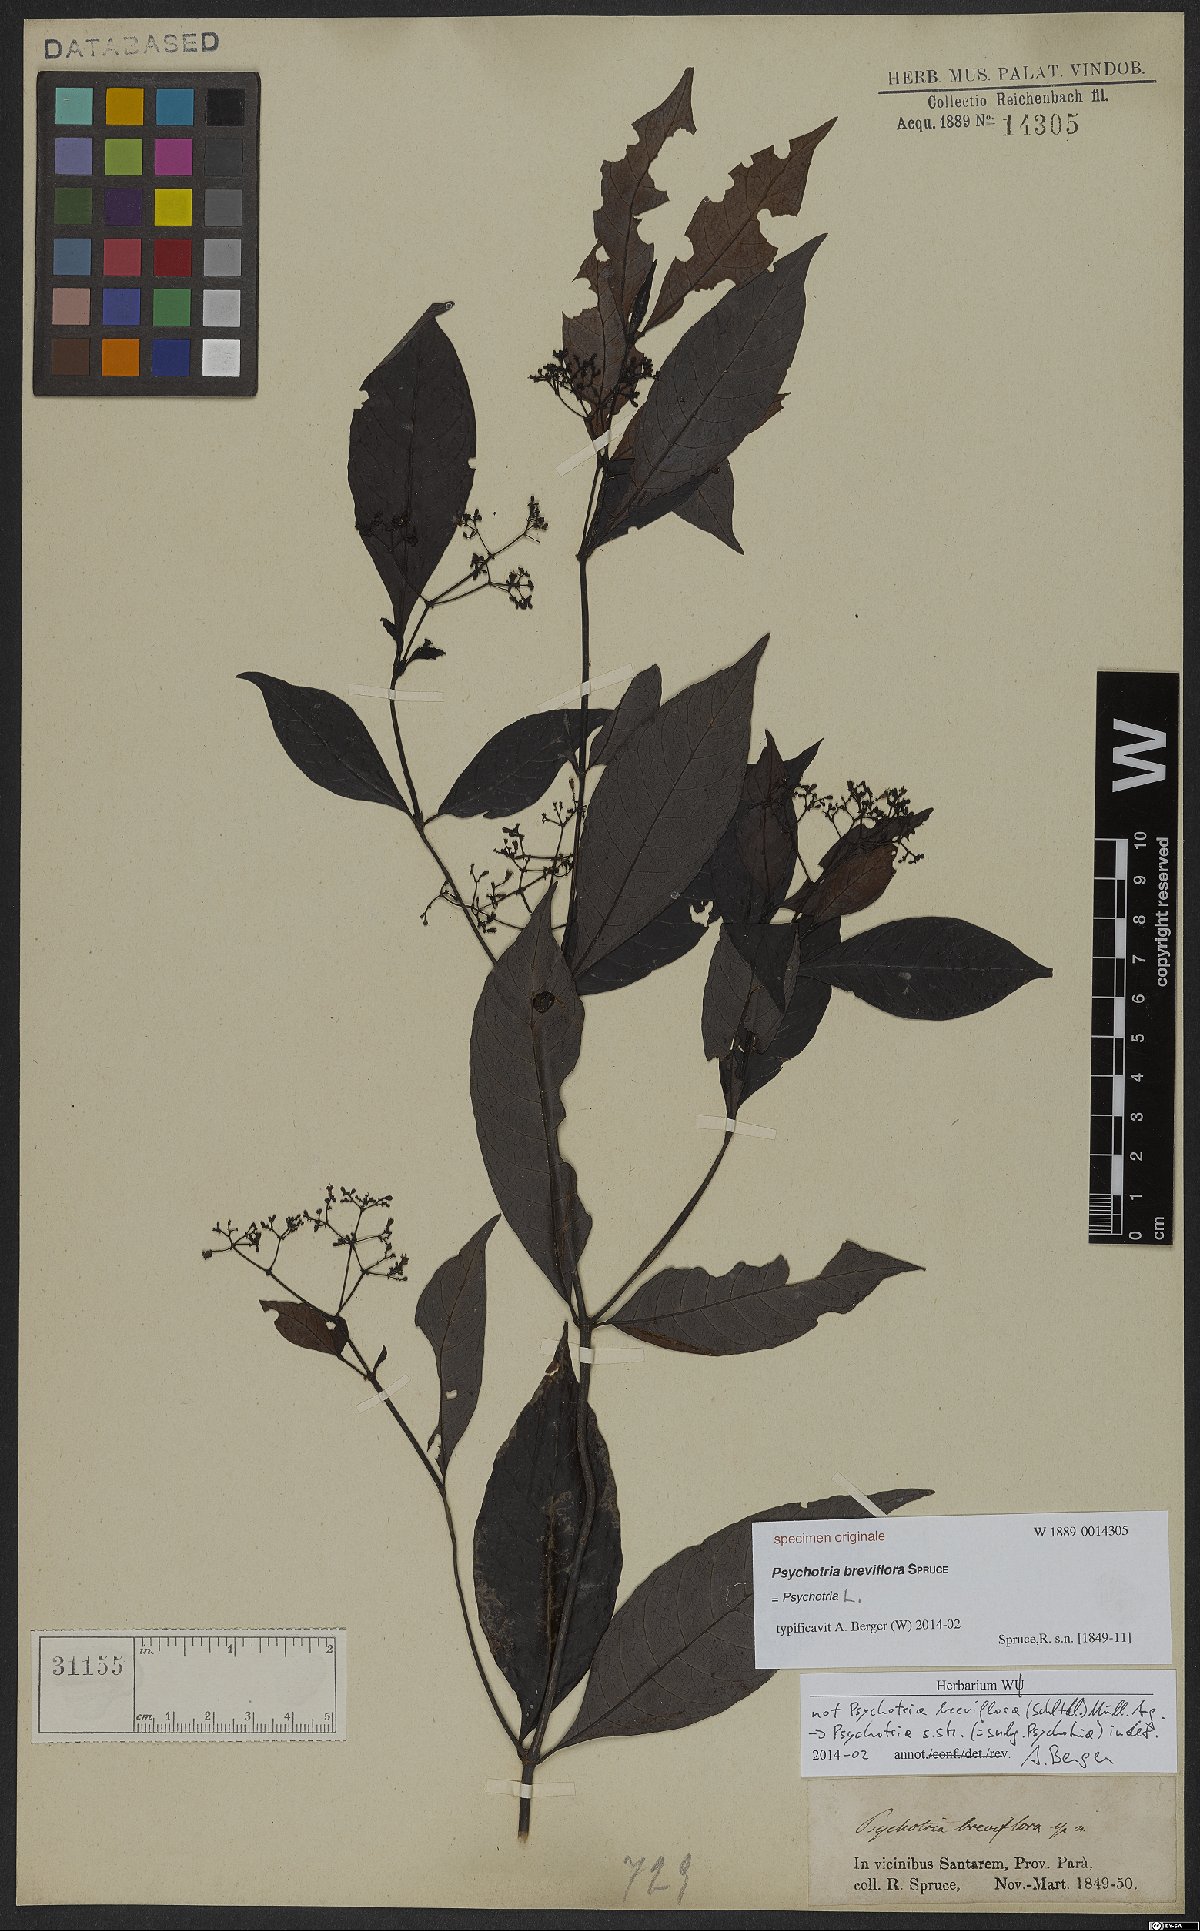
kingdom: Plantae
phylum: Tracheophyta
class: Magnoliopsida
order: Gentianales
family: Rubiaceae
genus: Psychotria
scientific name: Psychotria
